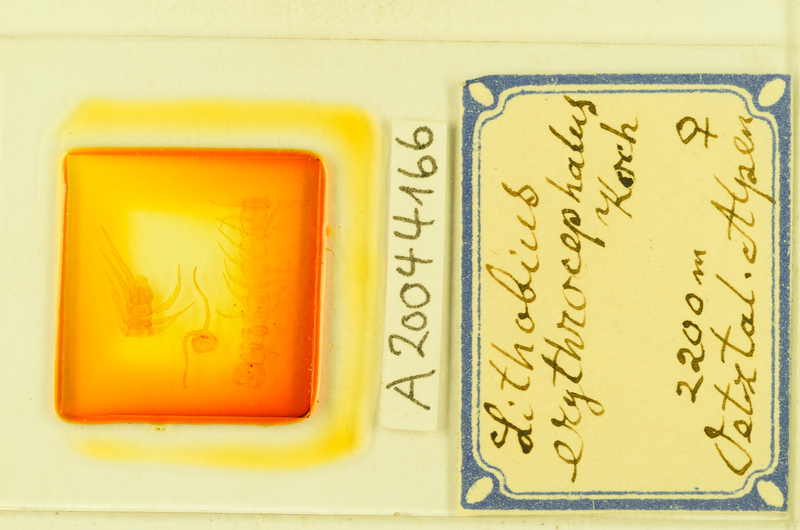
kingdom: Animalia
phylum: Arthropoda
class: Chilopoda
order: Lithobiomorpha
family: Lithobiidae
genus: Lithobius
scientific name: Lithobius erythrocephalus
